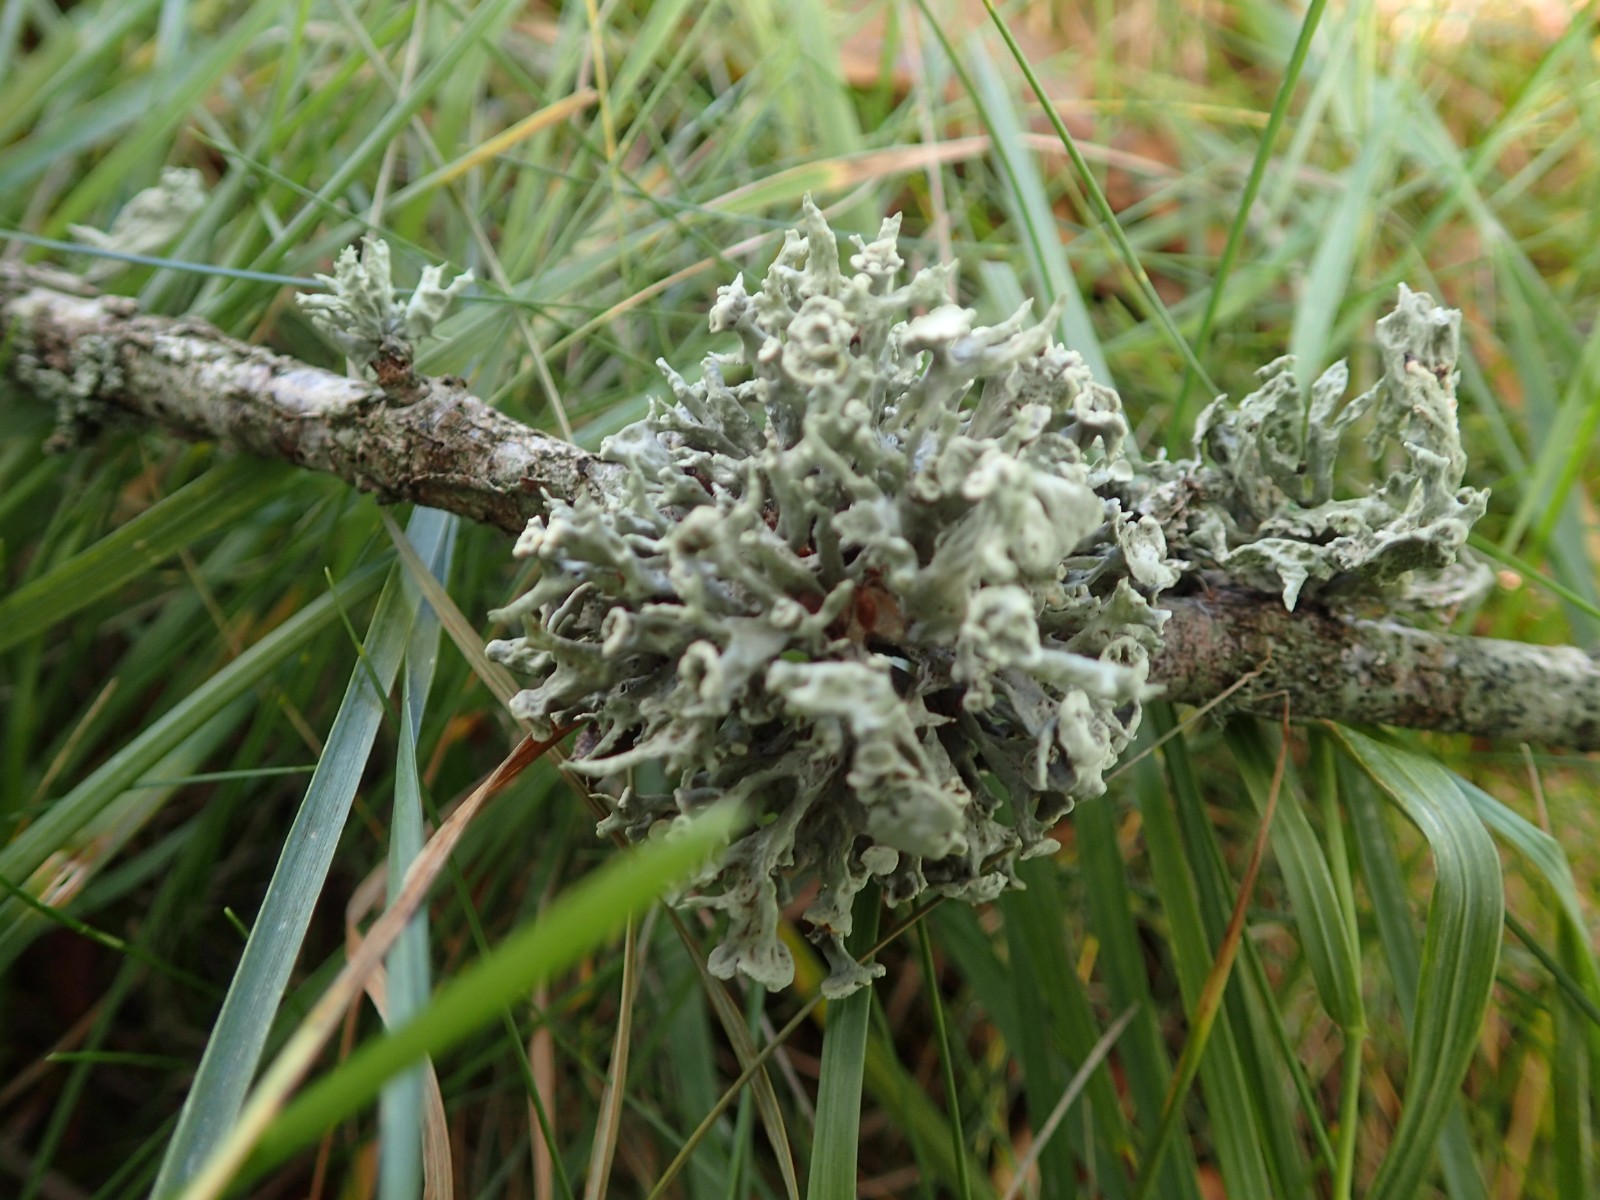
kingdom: Fungi
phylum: Ascomycota
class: Lecanoromycetes
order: Lecanorales
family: Ramalinaceae
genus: Ramalina
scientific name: Ramalina fastigiata
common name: tue-grenlav
